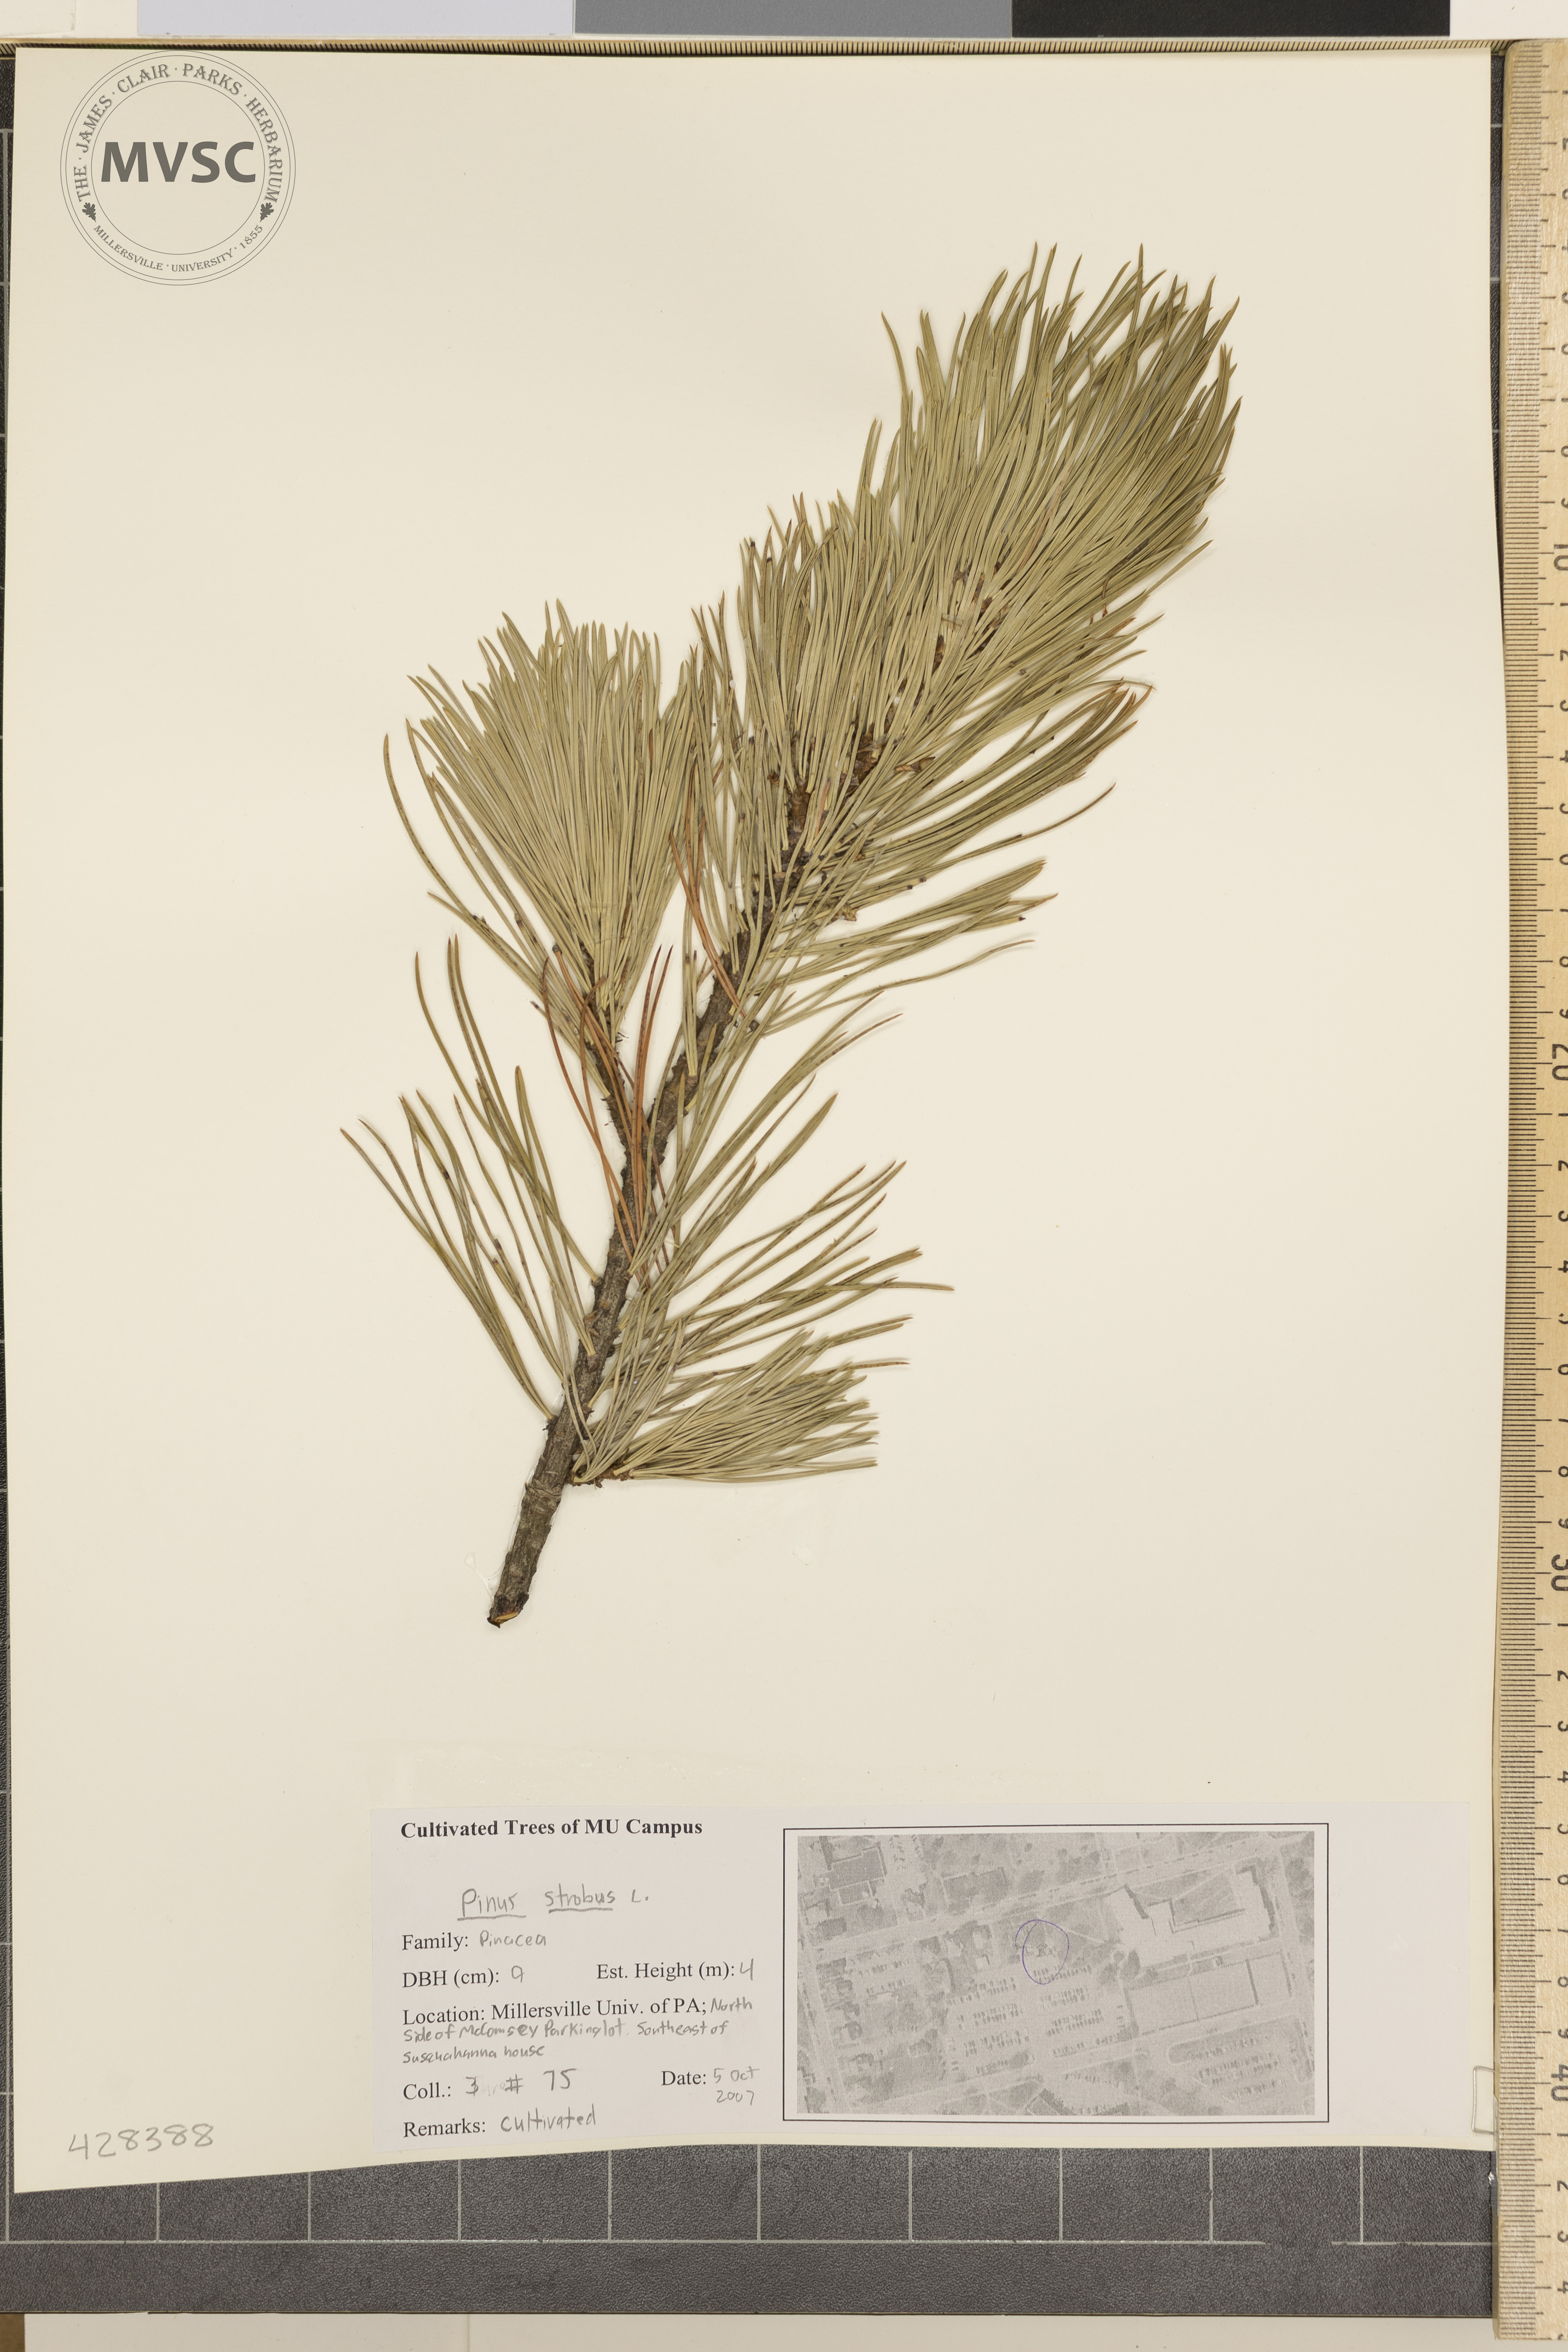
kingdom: Plantae
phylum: Tracheophyta
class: Pinopsida
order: Pinales
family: Pinaceae
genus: Pinus
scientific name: Pinus strobus
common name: Eastern White Pine
